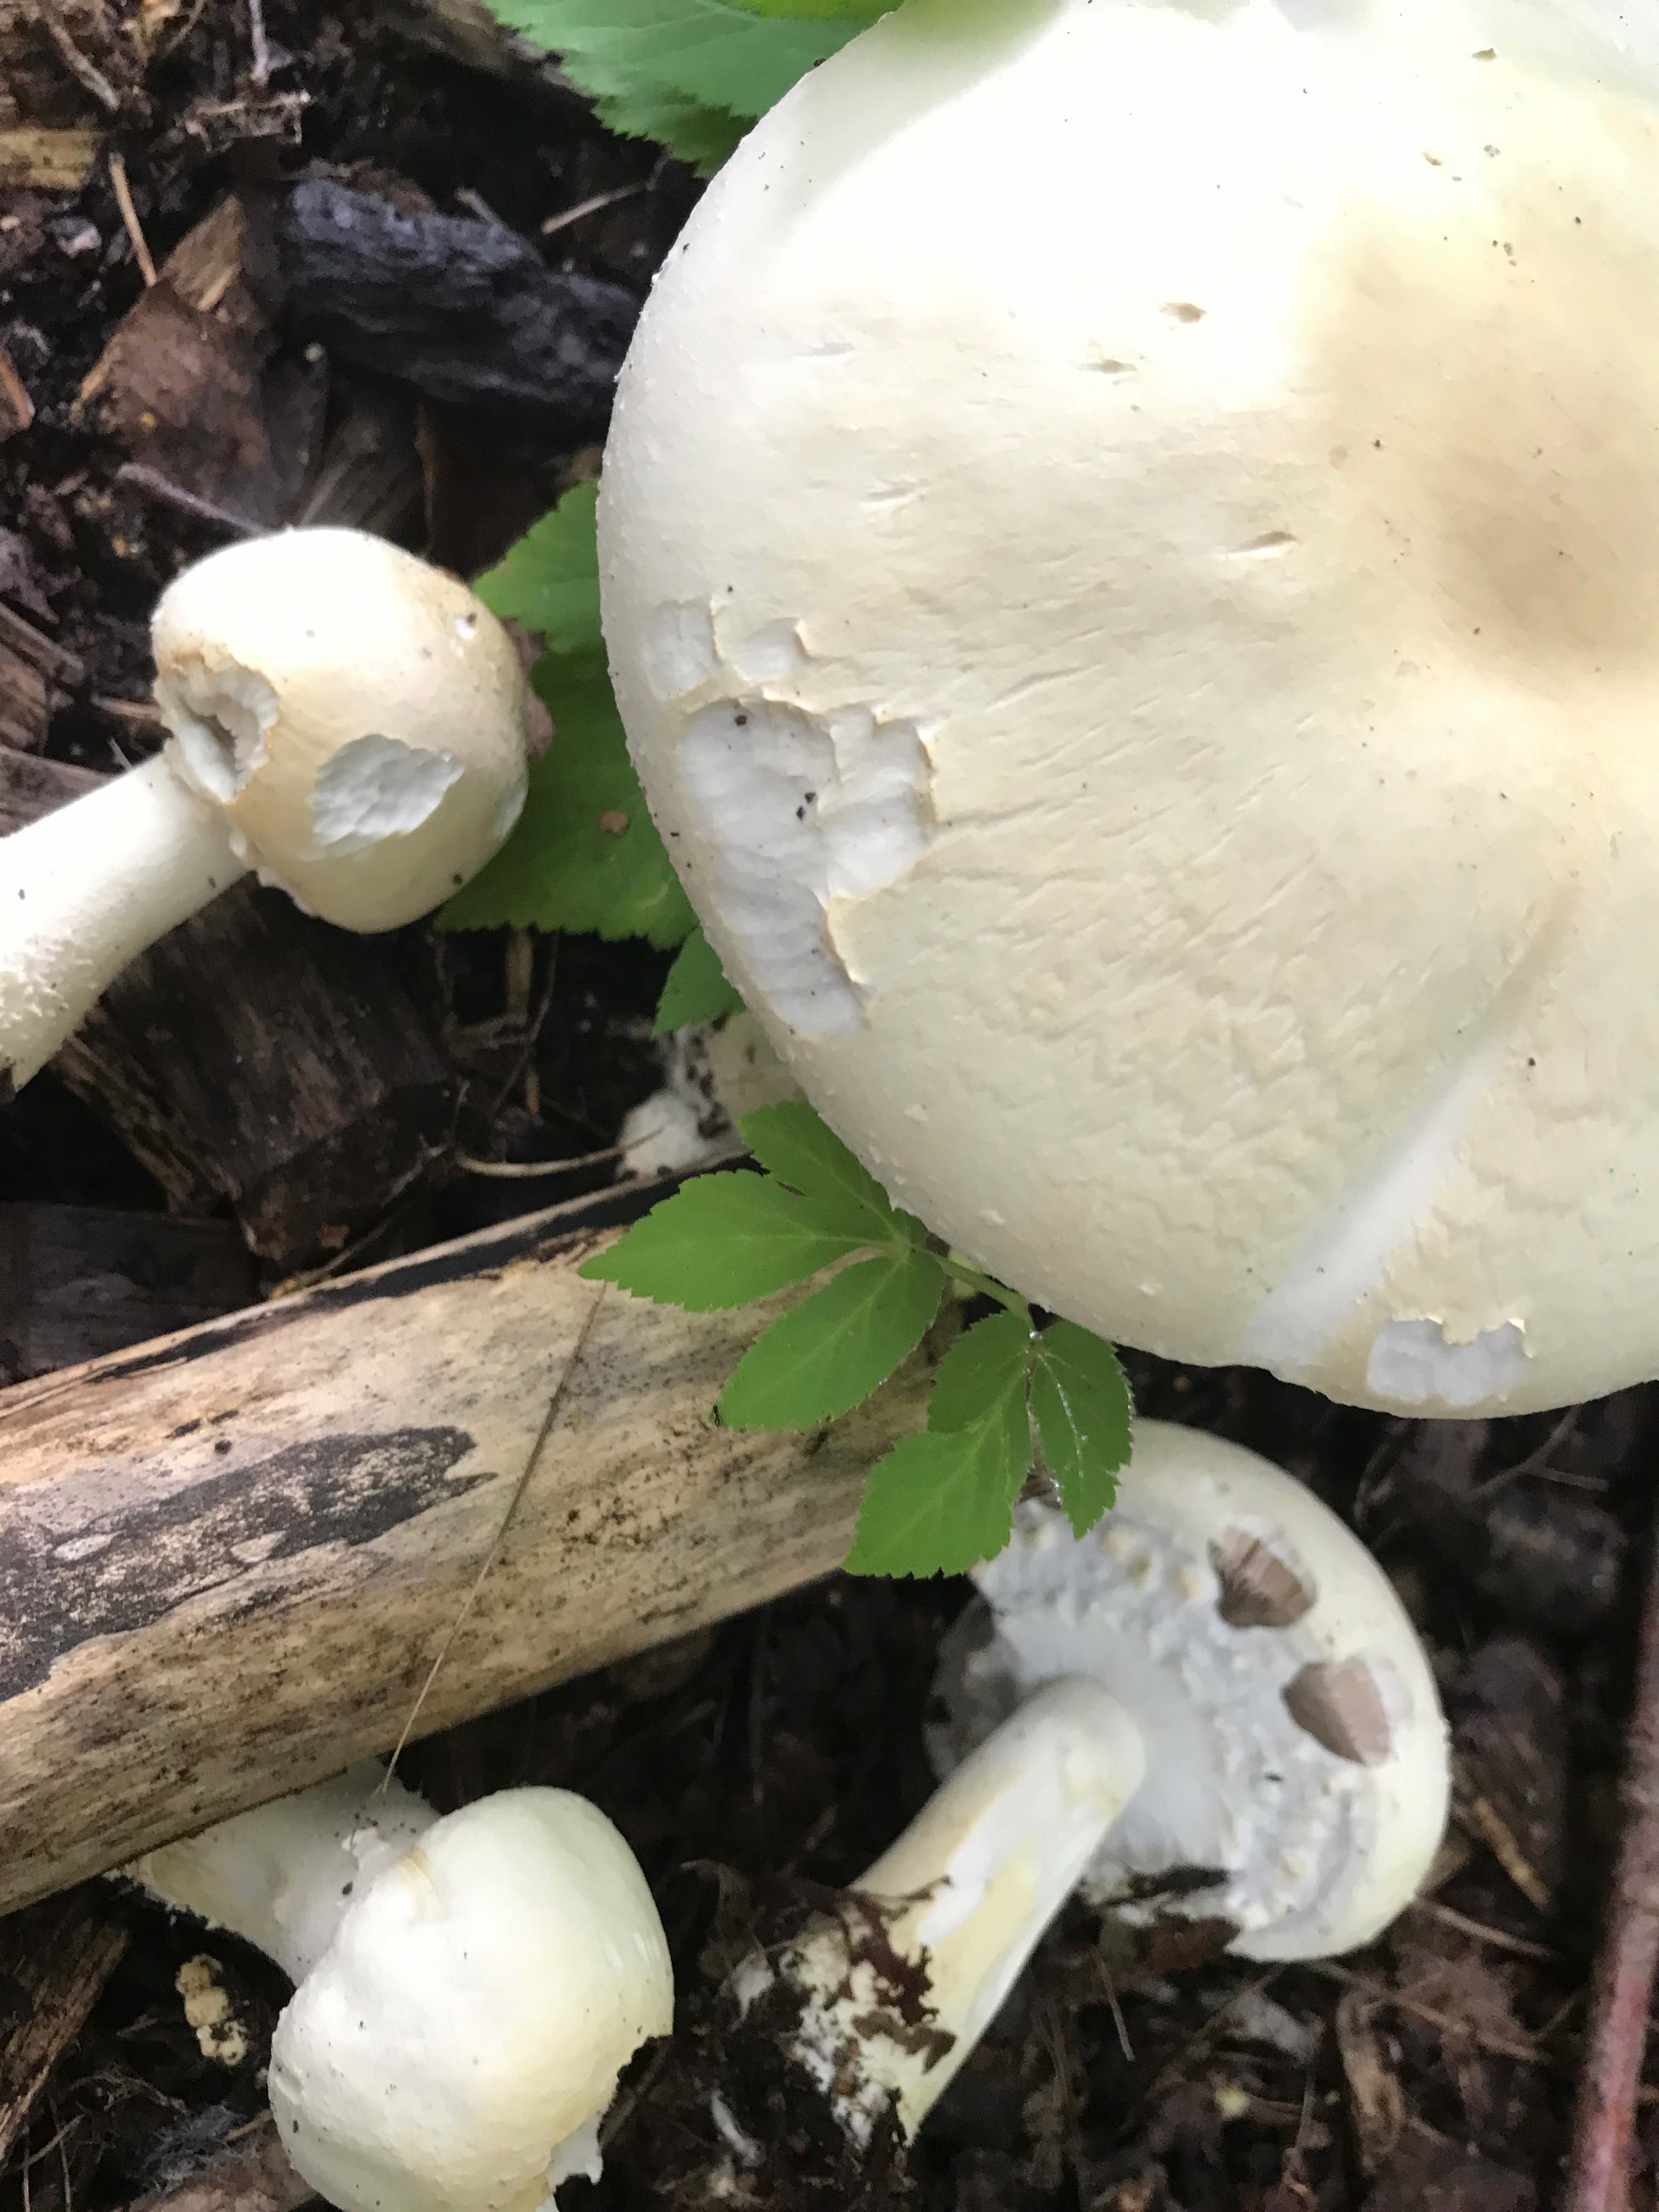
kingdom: Fungi
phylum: Basidiomycota
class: Agaricomycetes
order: Agaricales
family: Agaricaceae
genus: Agaricus
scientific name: Agaricus arvensis
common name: ager-champignon
